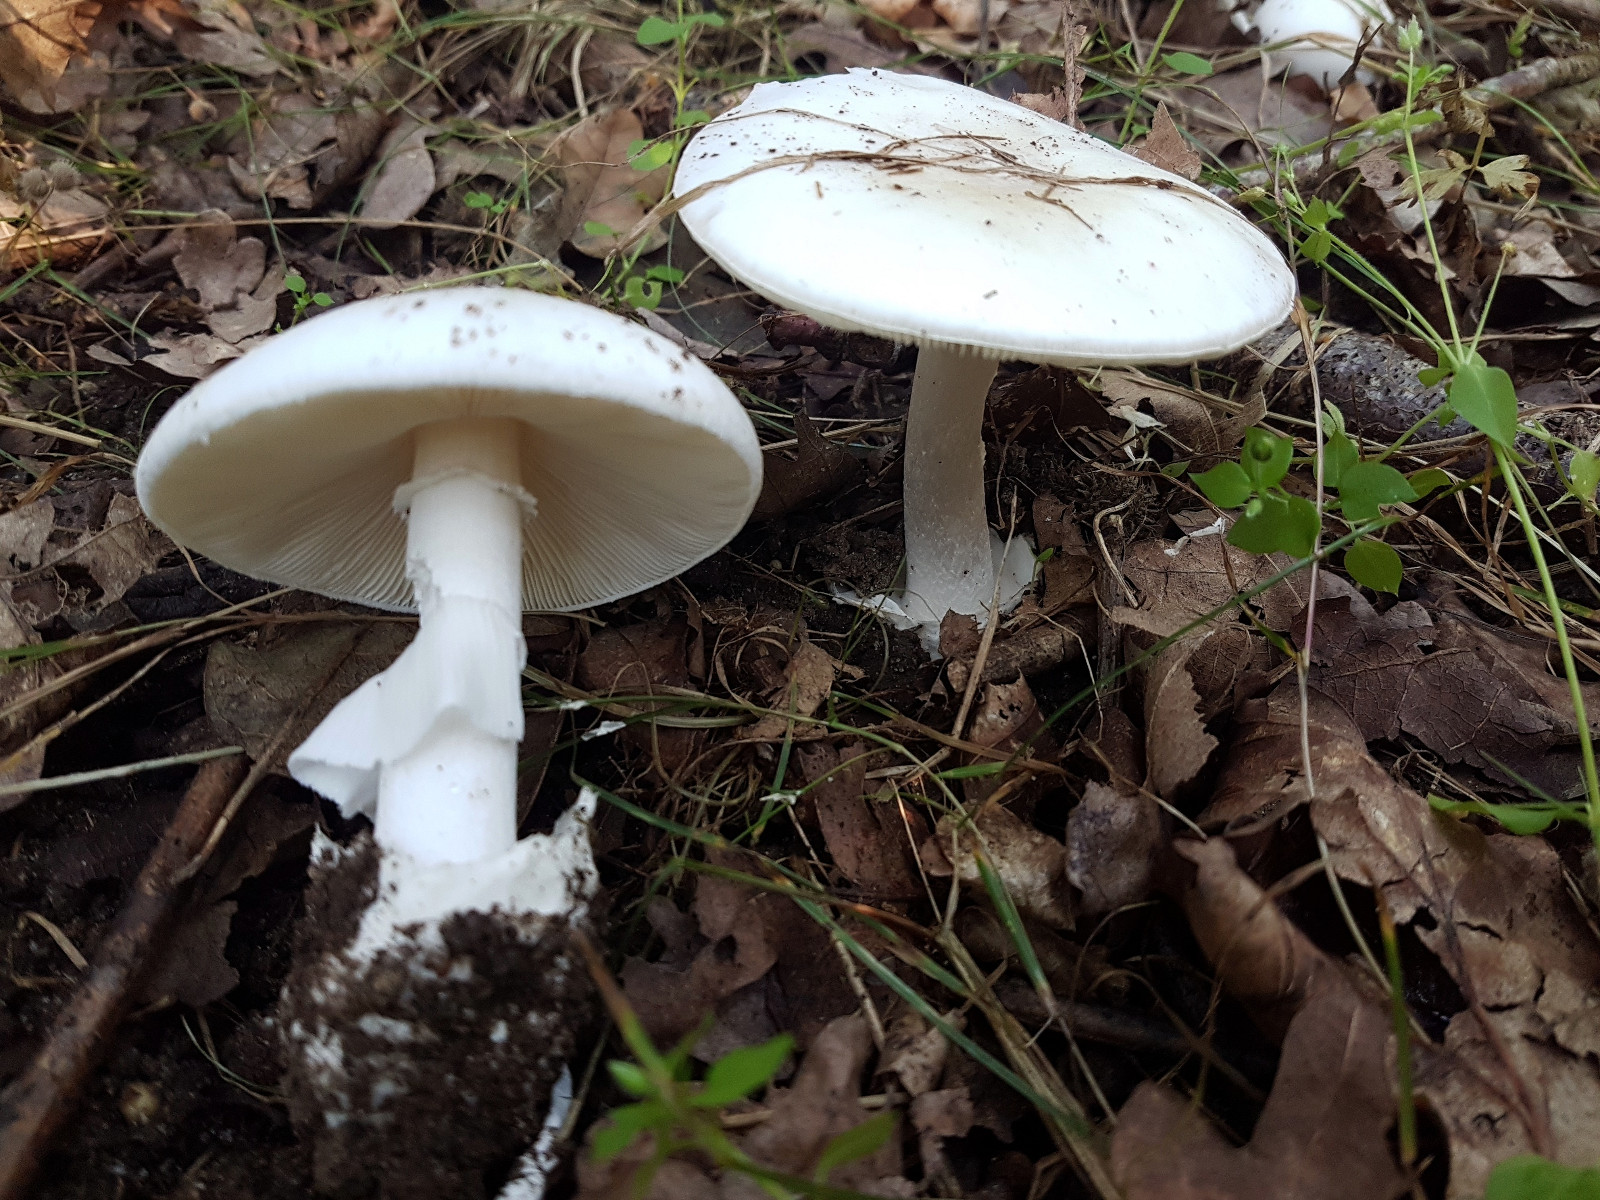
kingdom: Fungi
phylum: Basidiomycota
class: Agaricomycetes
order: Agaricales
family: Amanitaceae
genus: Amanita
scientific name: Amanita phalloides
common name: Death cap
